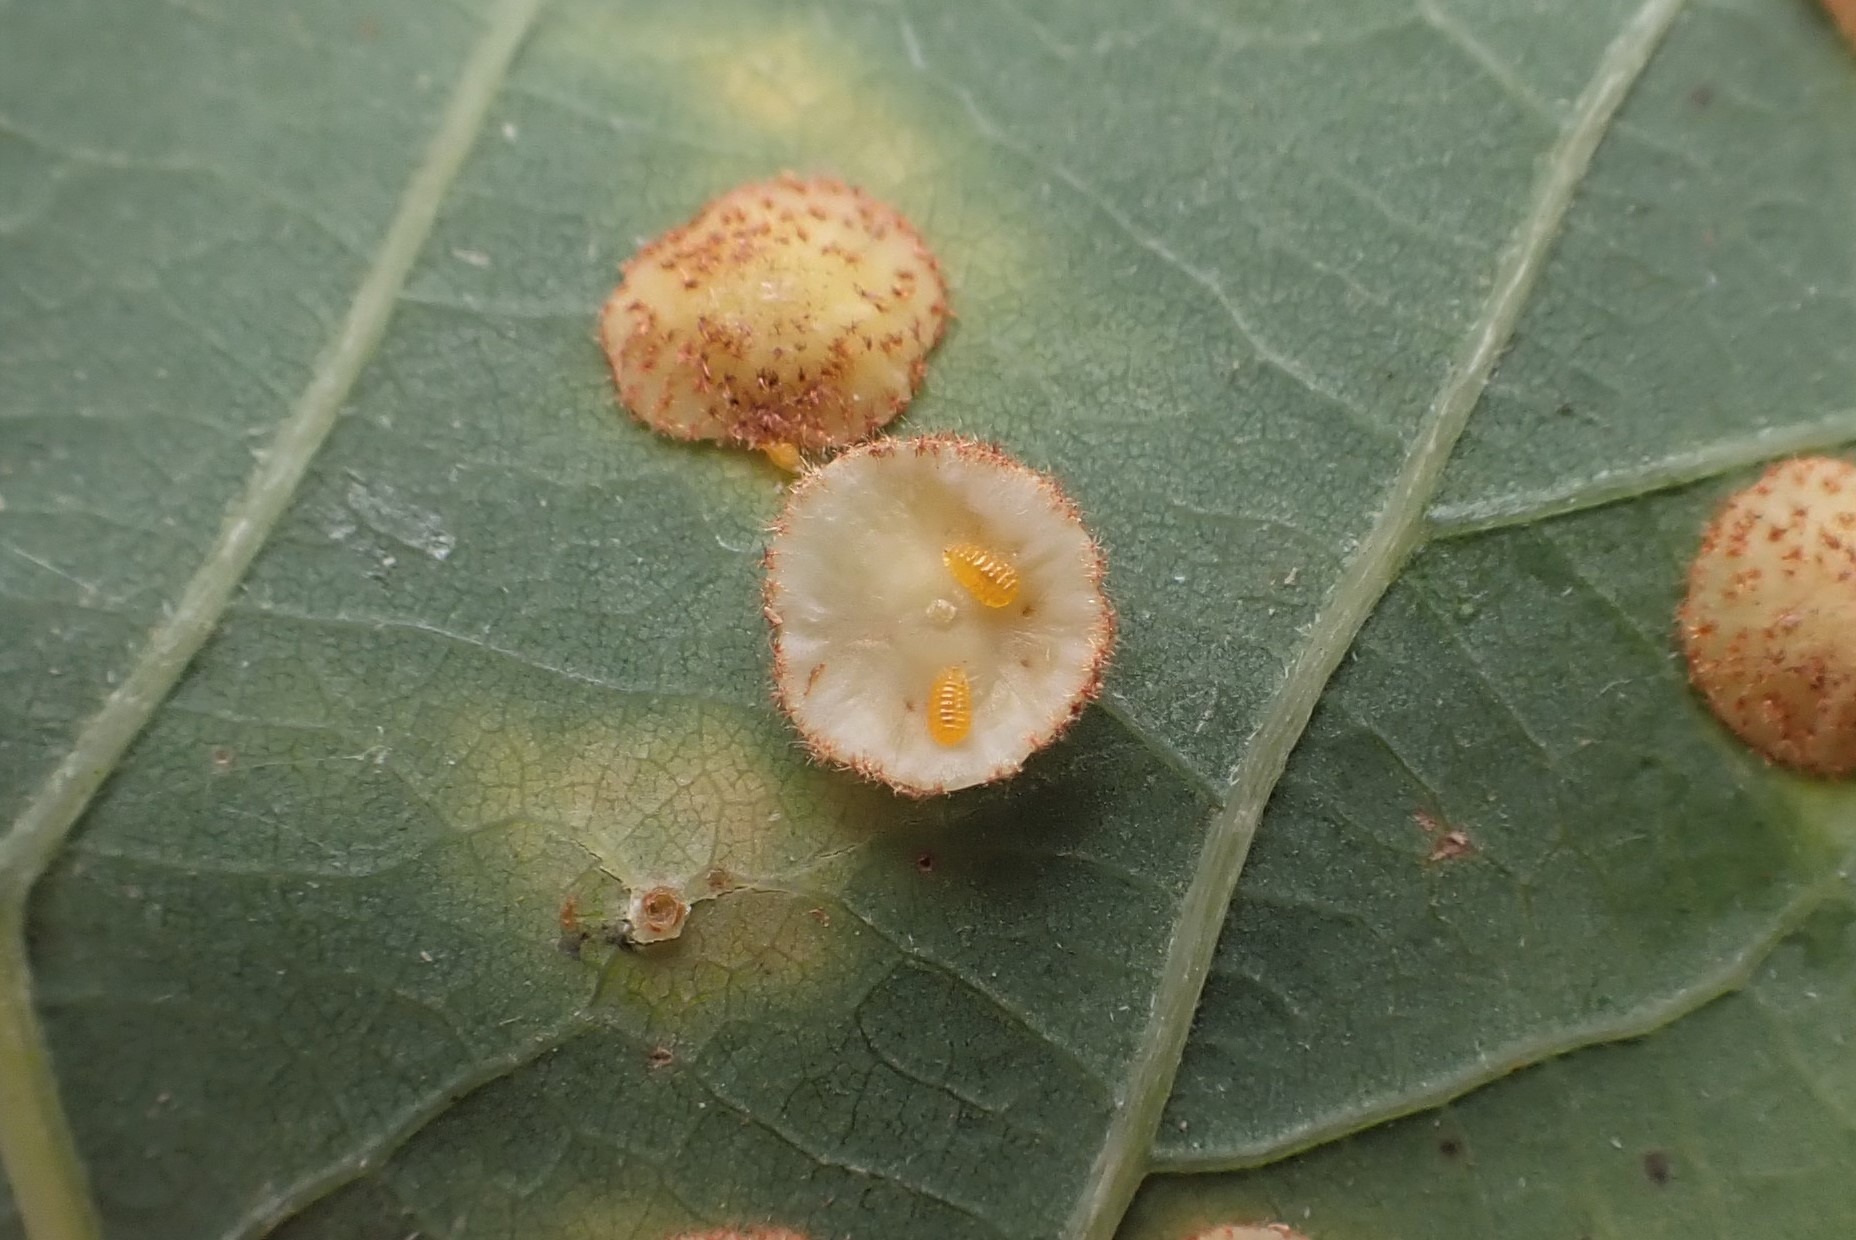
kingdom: Animalia
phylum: Arthropoda
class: Insecta
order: Diptera
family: Cecidomyiidae
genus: Parallelodiplosis
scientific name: Parallelodiplosis galliperda
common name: Underbogalmyg
